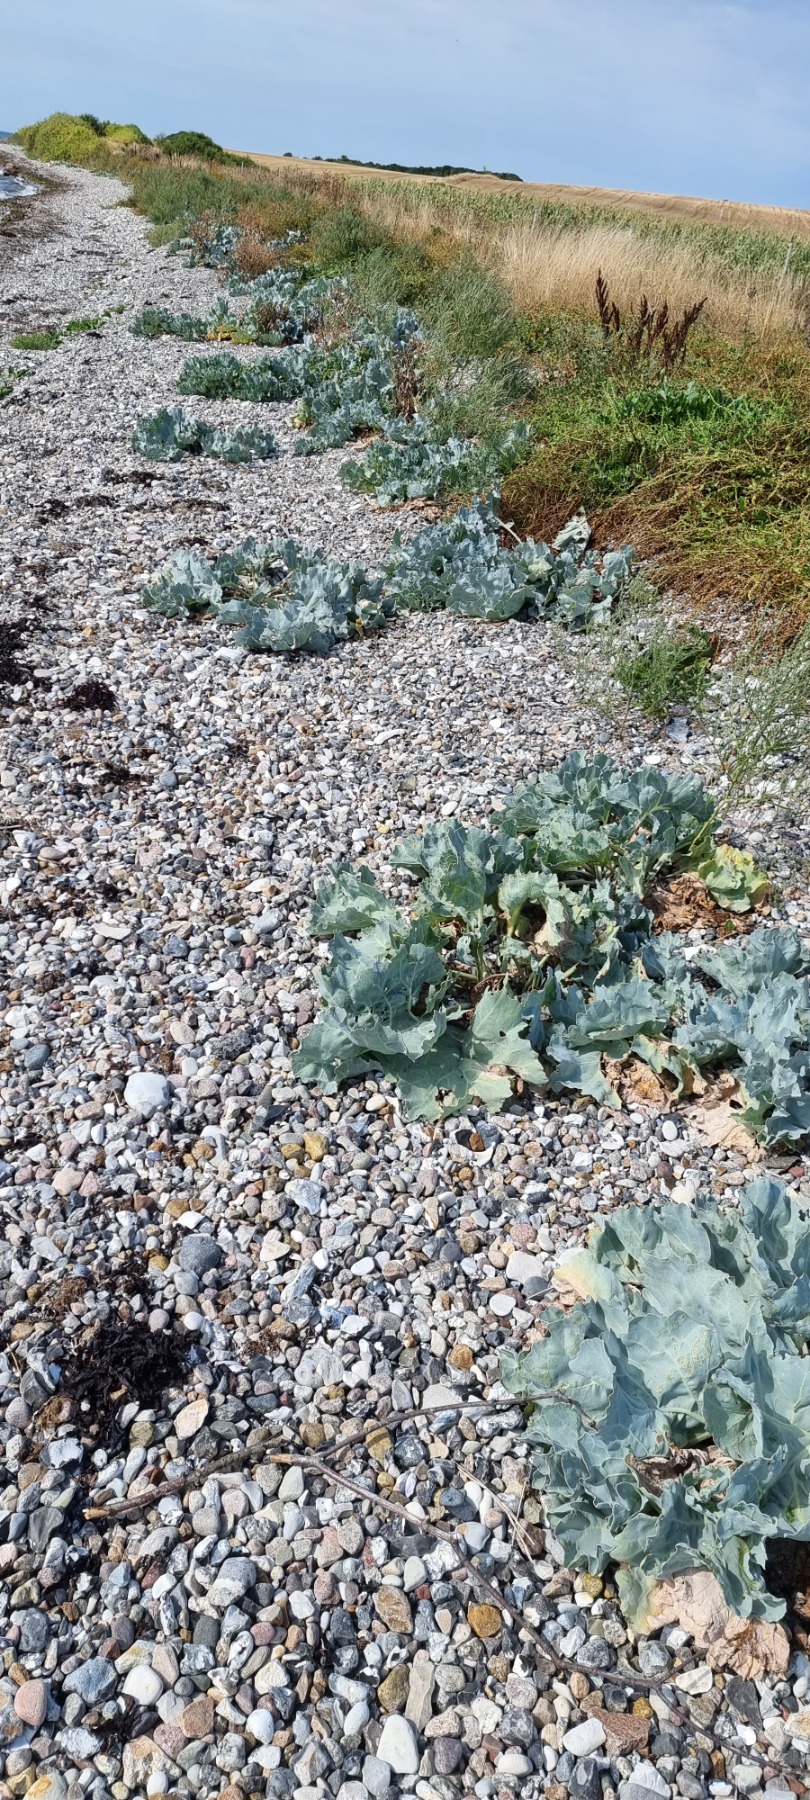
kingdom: Plantae
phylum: Tracheophyta
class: Magnoliopsida
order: Brassicales
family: Brassicaceae
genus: Crambe
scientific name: Crambe maritima
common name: Strandkål
